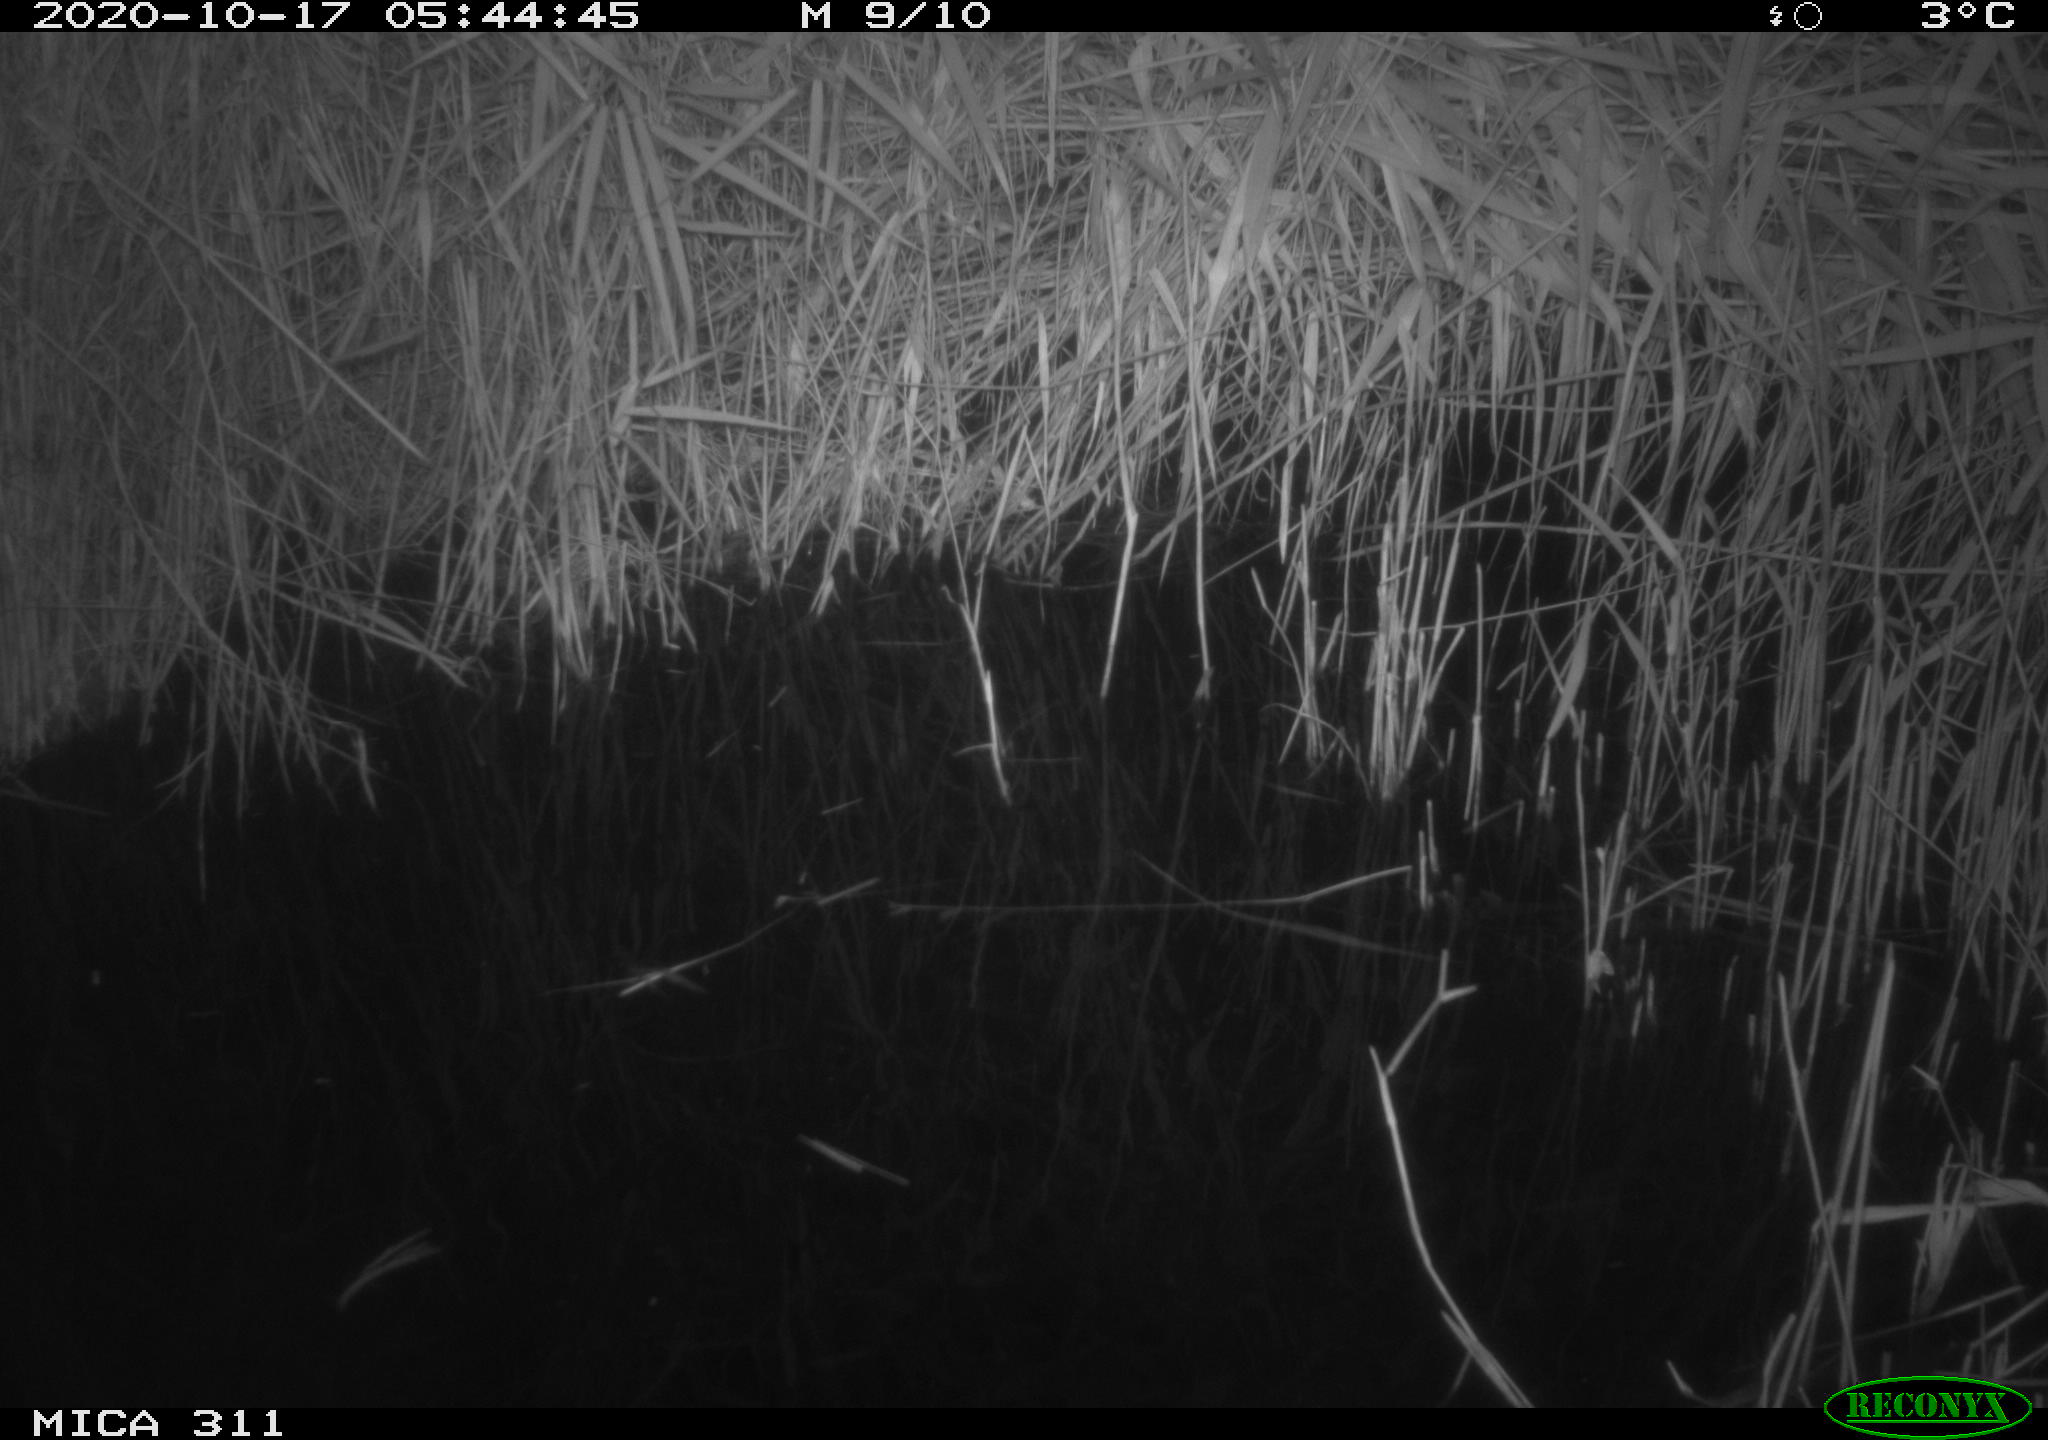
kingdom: Animalia
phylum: Chordata
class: Mammalia
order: Rodentia
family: Muridae
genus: Rattus
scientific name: Rattus norvegicus
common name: Brown rat
